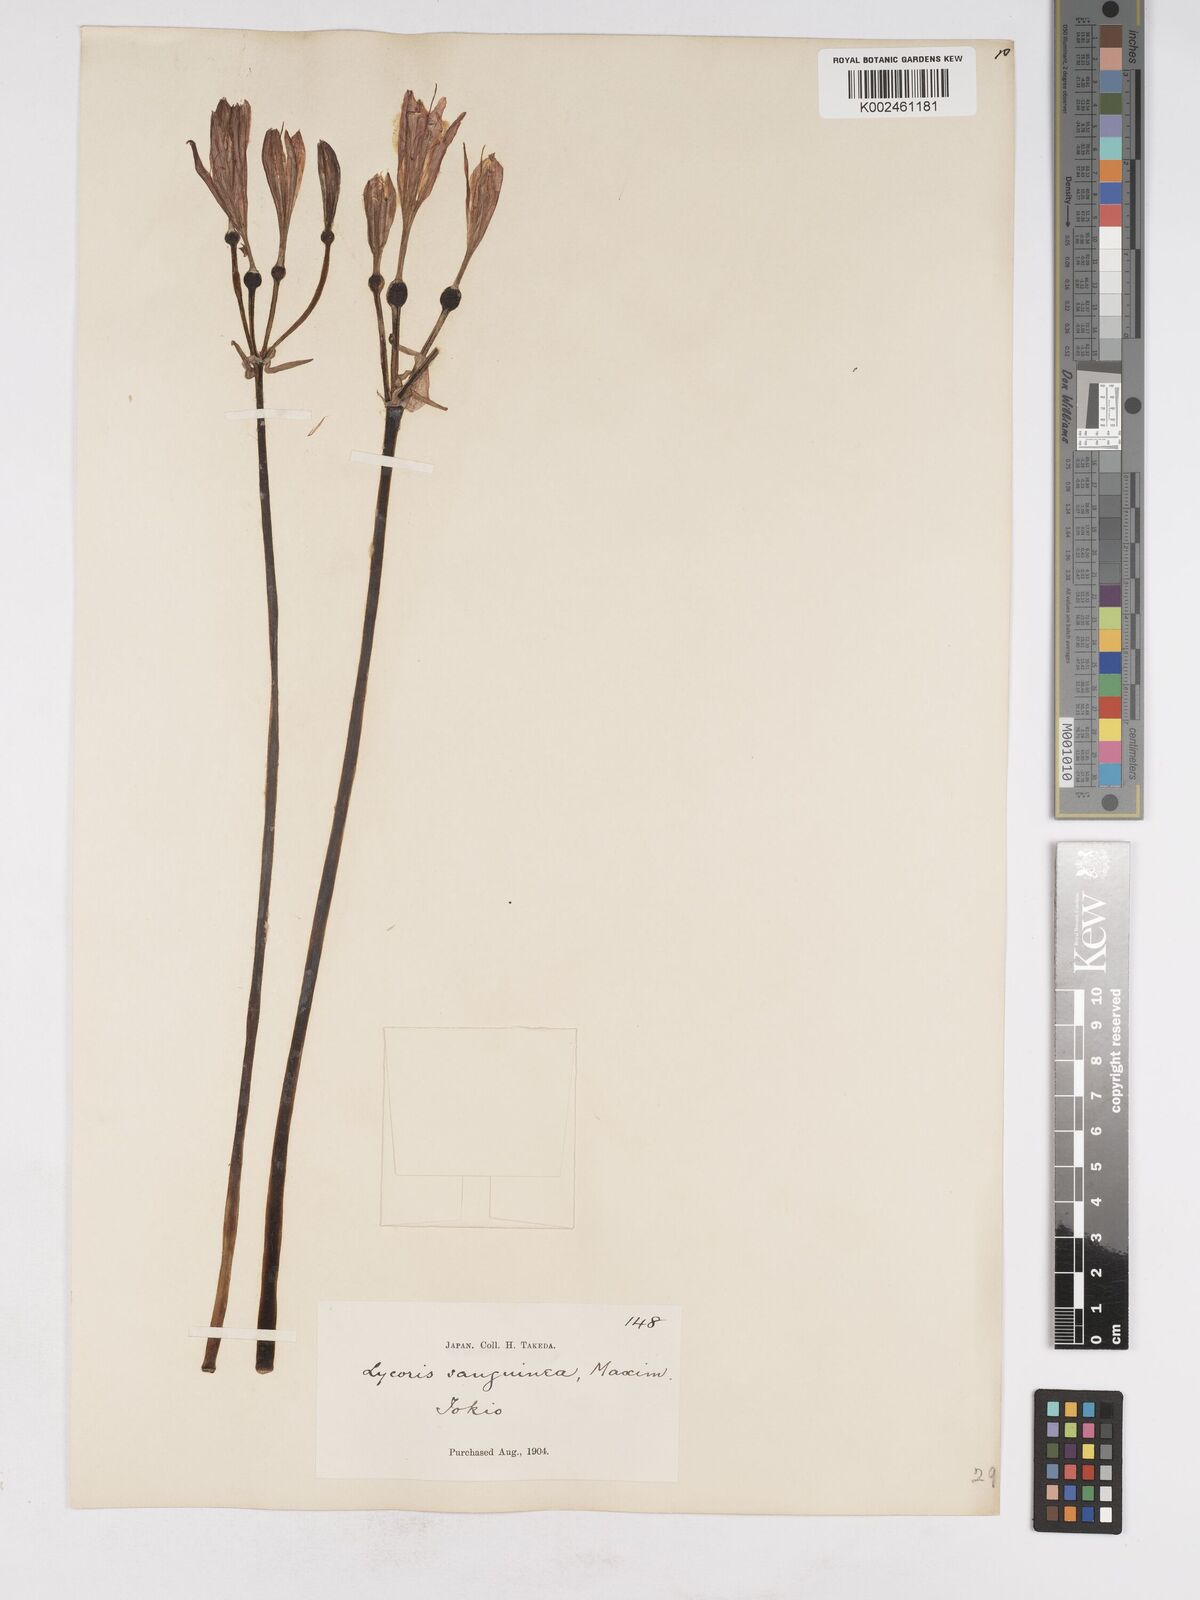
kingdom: Plantae
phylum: Tracheophyta
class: Liliopsida
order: Asparagales
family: Amaryllidaceae
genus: Lycoris
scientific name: Lycoris sanguinea
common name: Spider-lily
